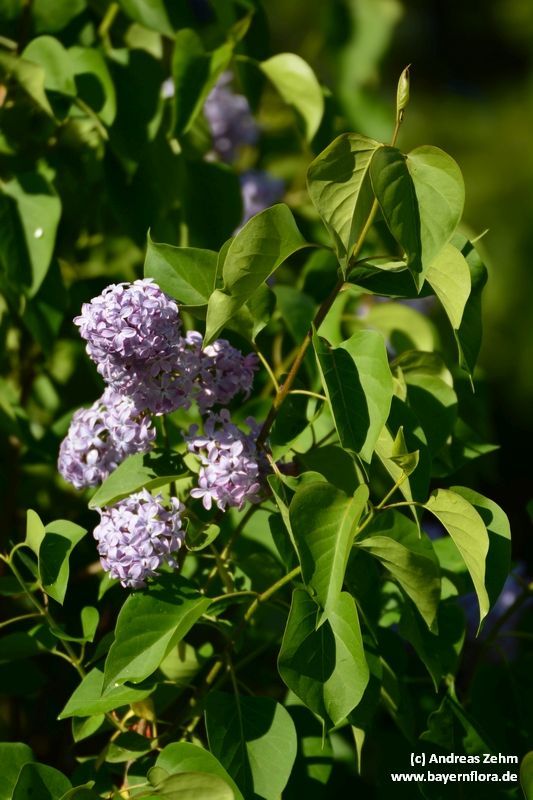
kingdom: Plantae
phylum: Tracheophyta
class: Magnoliopsida
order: Lamiales
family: Oleaceae
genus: Syringa
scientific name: Syringa vulgaris
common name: Common lilac
